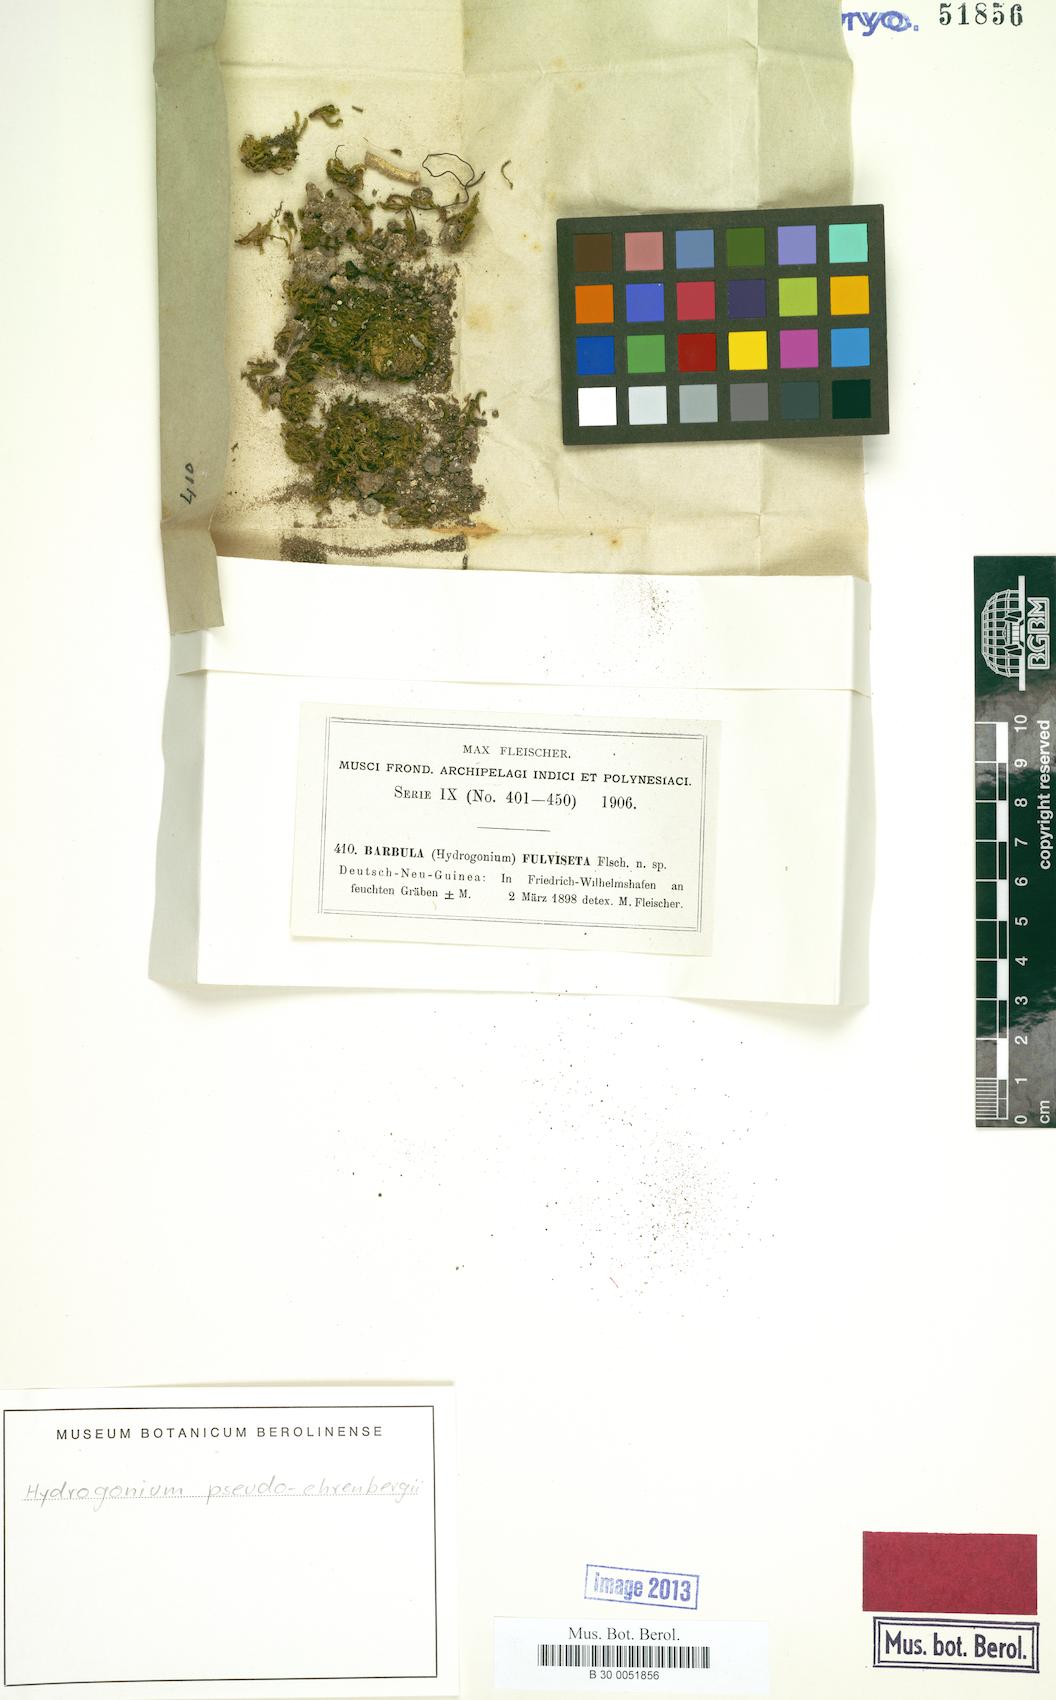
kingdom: Plantae
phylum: Bryophyta
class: Bryopsida
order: Pottiales
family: Pottiaceae
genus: Hydrogonium
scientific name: Hydrogonium pseudoehrenbergii
